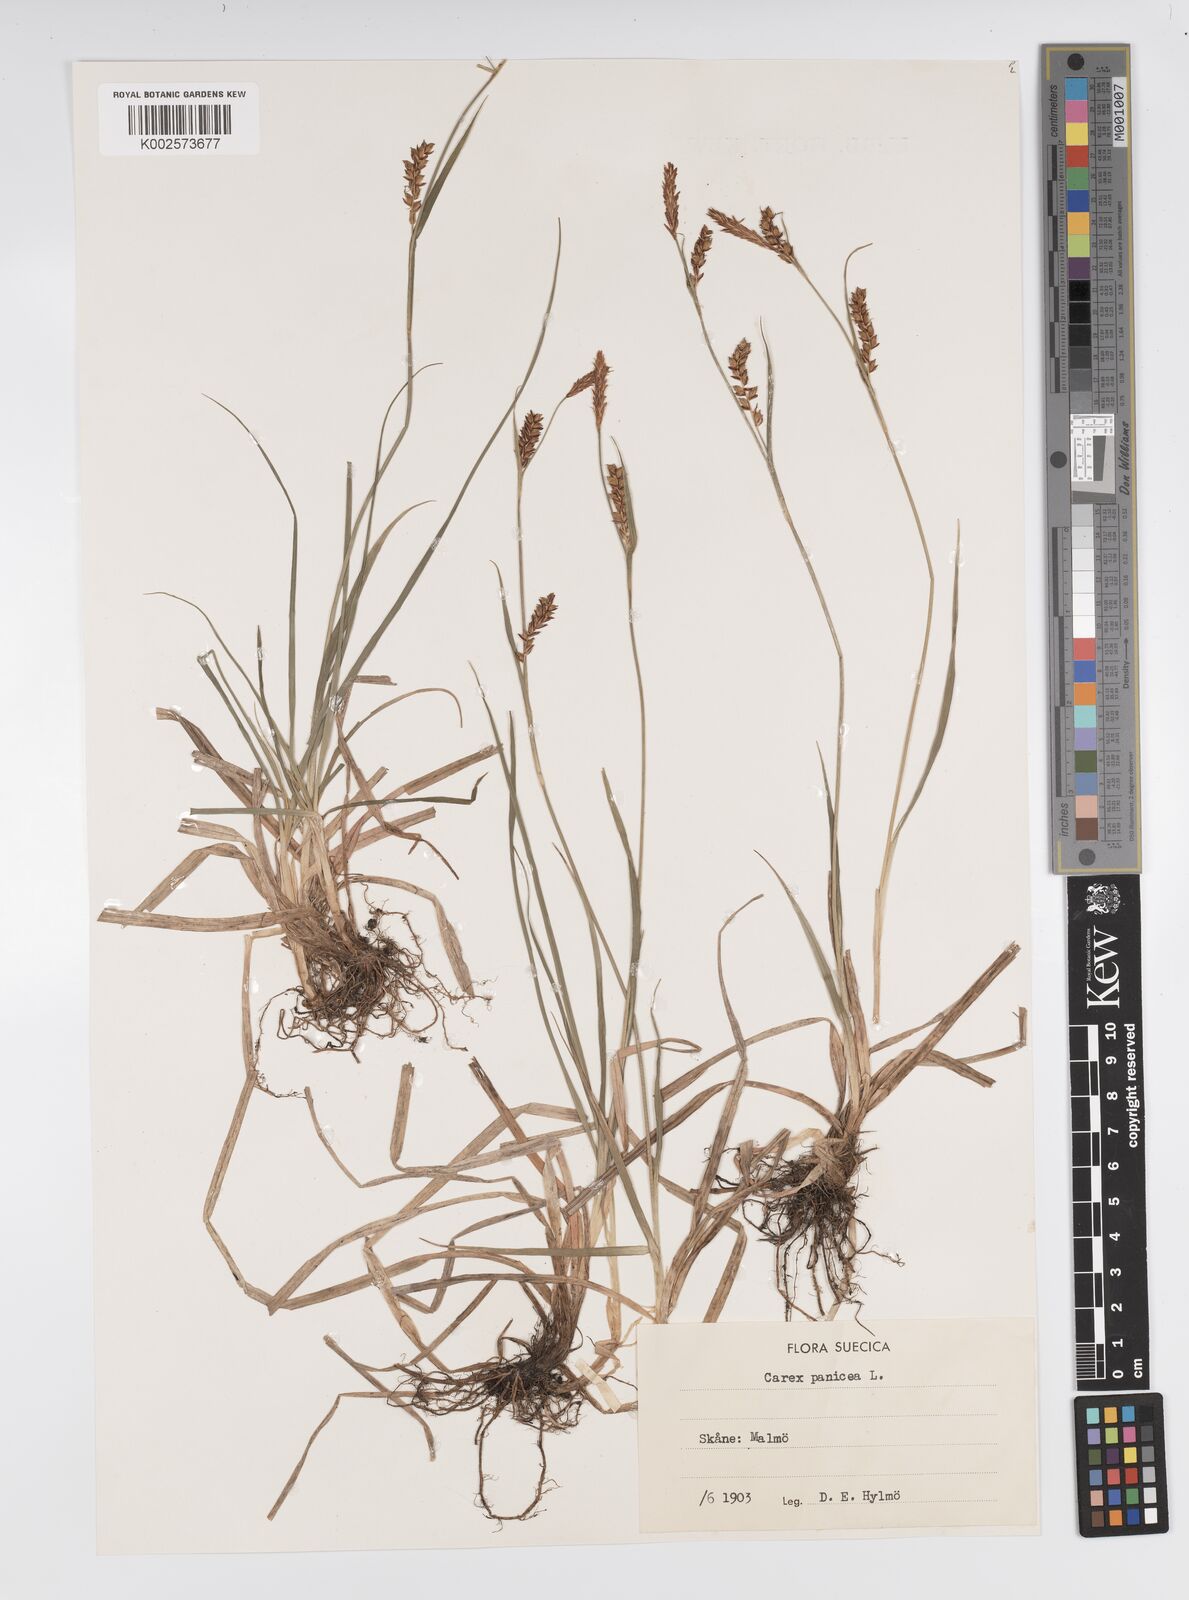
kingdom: Plantae
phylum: Tracheophyta
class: Liliopsida
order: Poales
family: Cyperaceae
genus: Carex
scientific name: Carex panicea
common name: Carnation sedge
